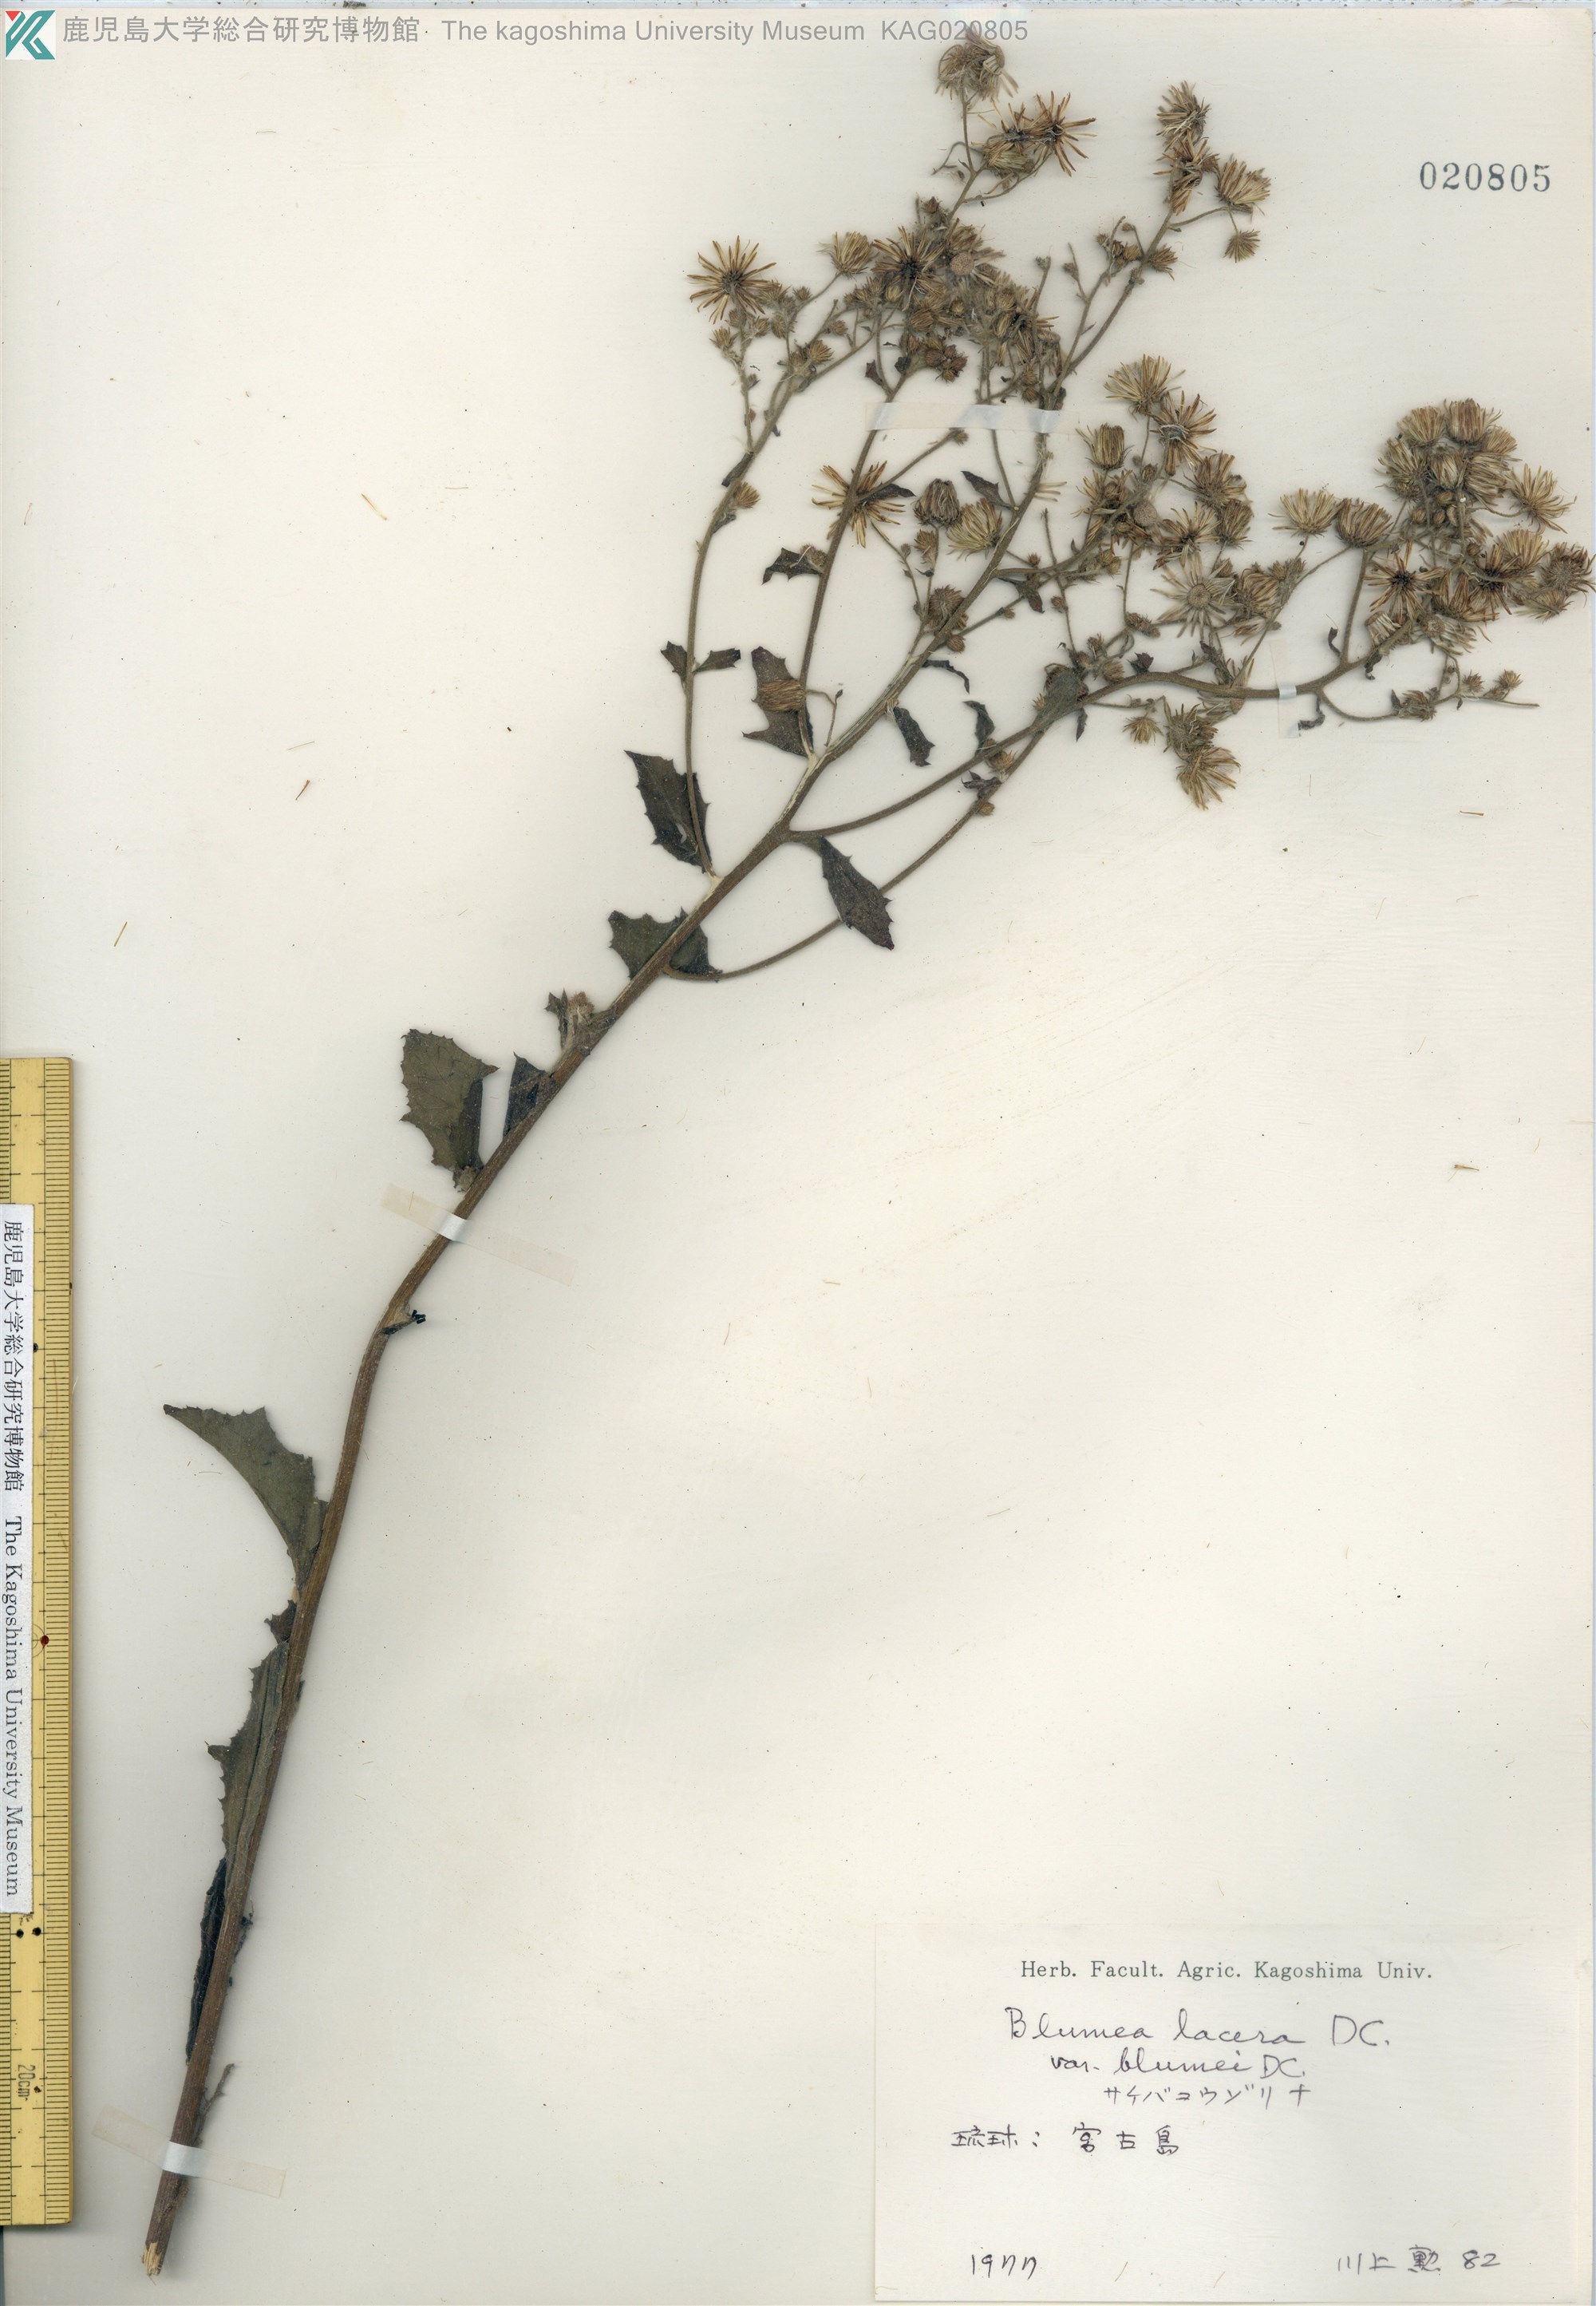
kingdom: Plantae
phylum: Tracheophyta
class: Magnoliopsida
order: Asterales
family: Asteraceae
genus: Blumea
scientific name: Blumea lacera
